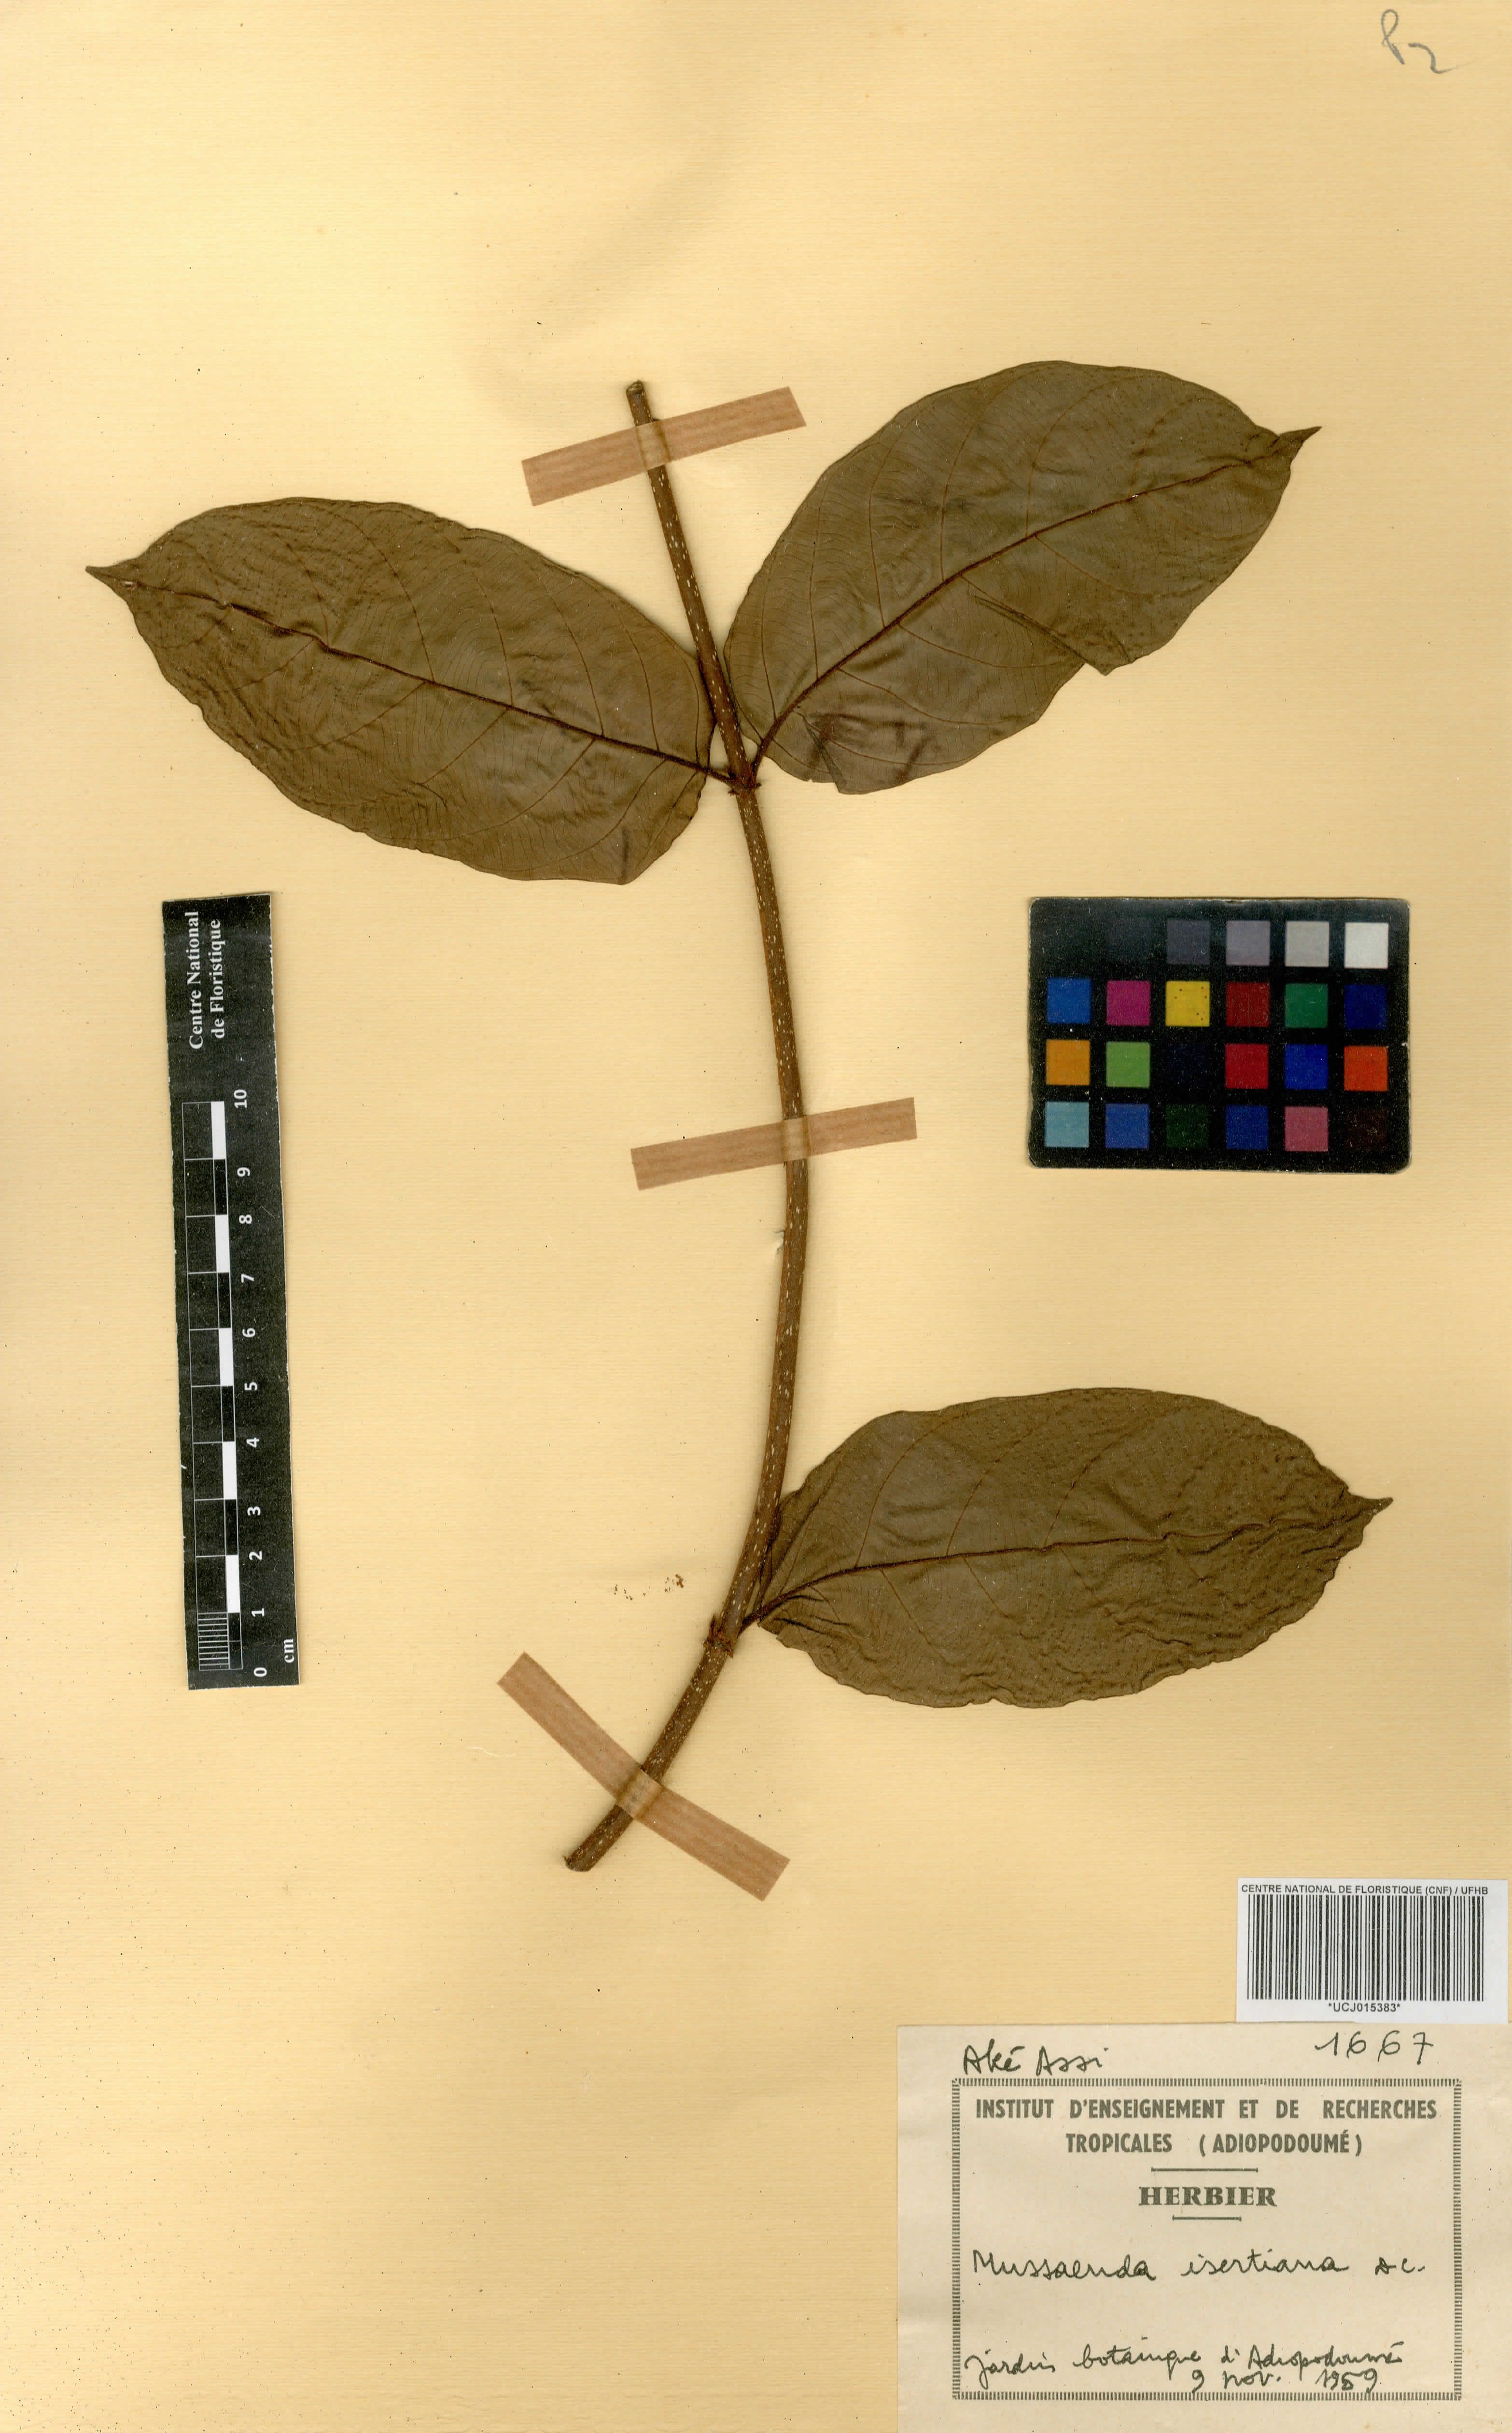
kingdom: Plantae
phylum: Tracheophyta
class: Magnoliopsida
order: Gentianales
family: Rubiaceae
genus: Mussaenda
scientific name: Mussaenda isertiana
